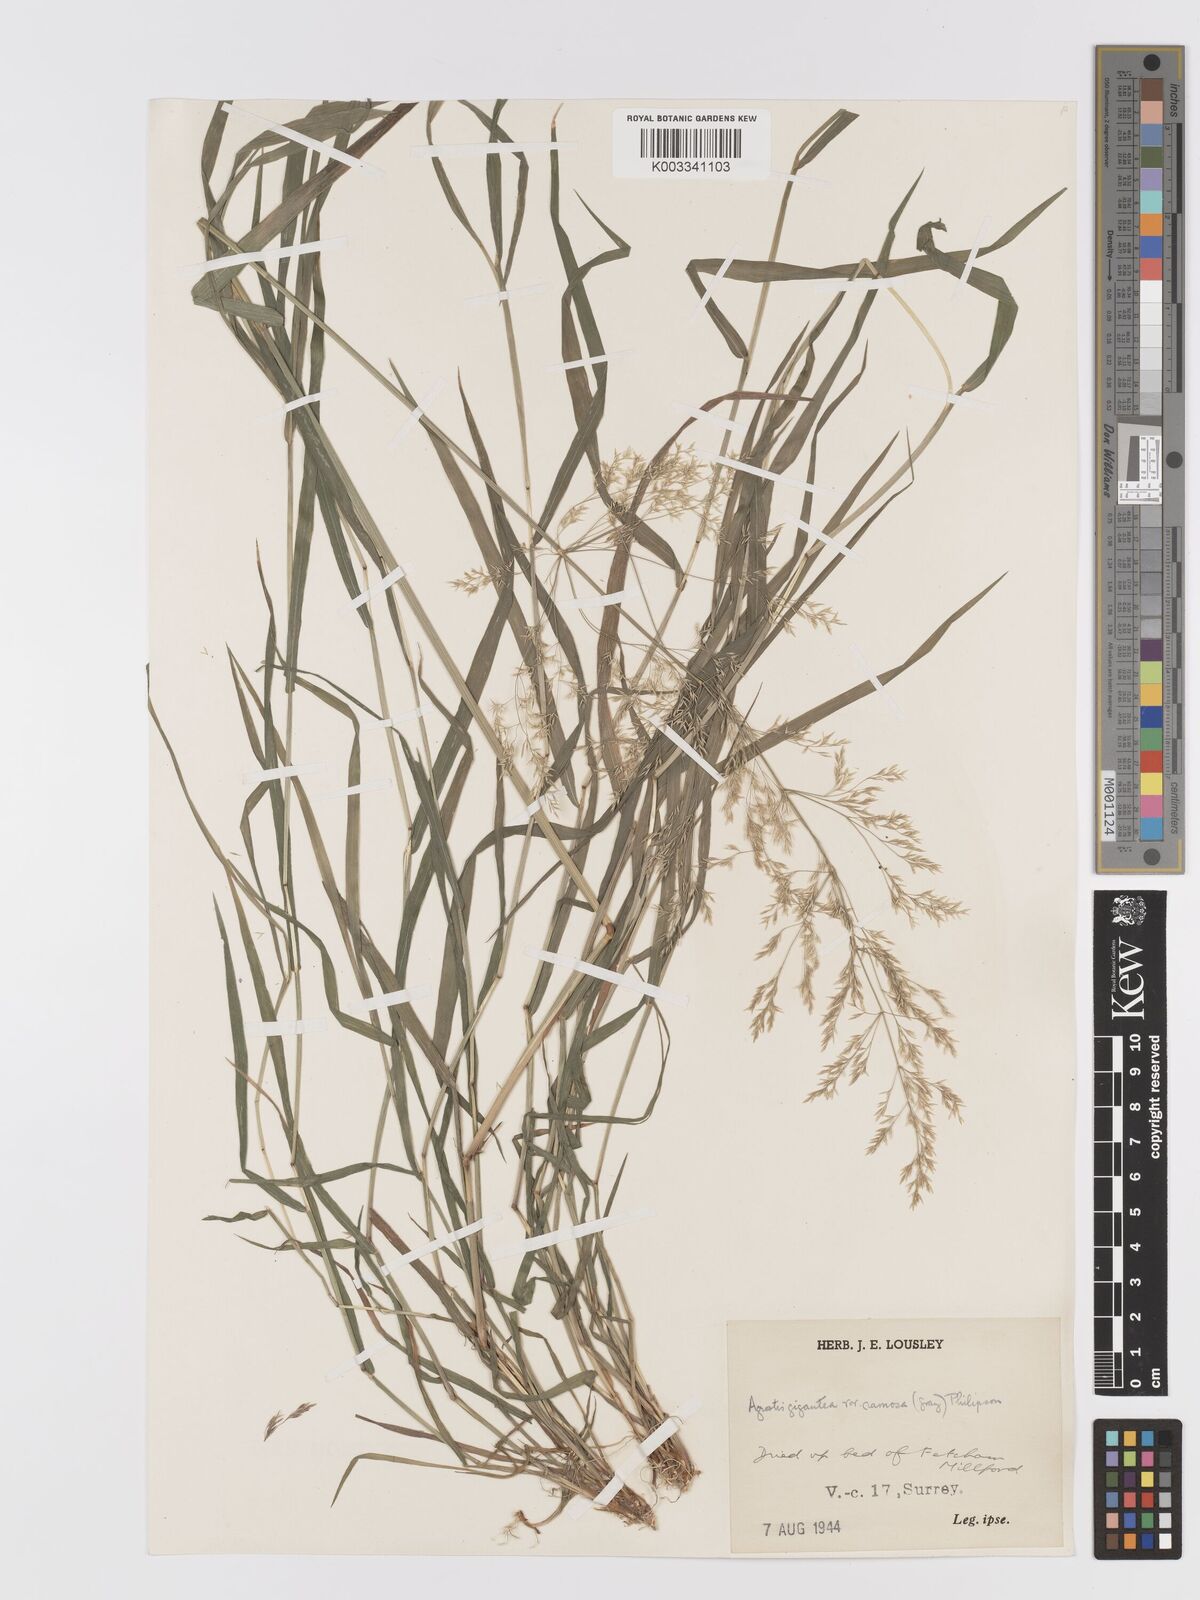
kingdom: Plantae
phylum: Tracheophyta
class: Liliopsida
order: Poales
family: Poaceae
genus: Agrostis
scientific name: Agrostis gigantea
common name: Black bent
